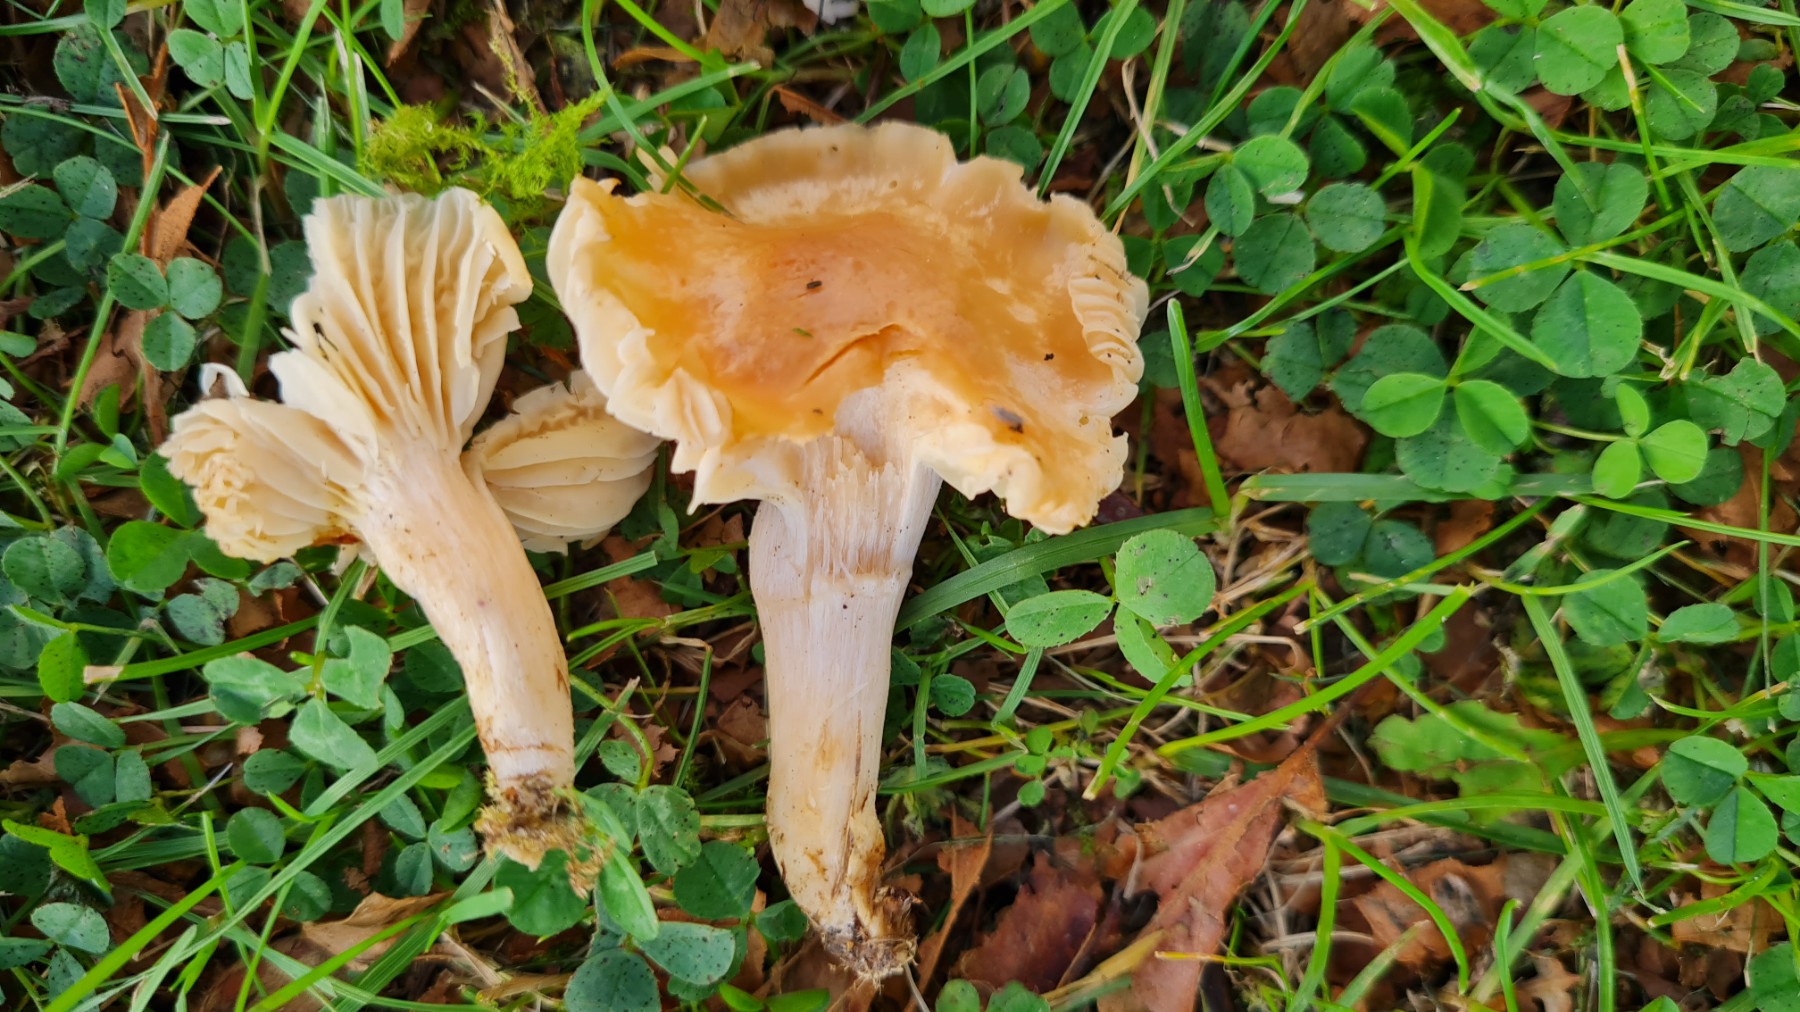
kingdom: Fungi
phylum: Basidiomycota
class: Agaricomycetes
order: Agaricales
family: Hygrophoraceae
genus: Cuphophyllus
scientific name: Cuphophyllus pratensis
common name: eng-vokshat
